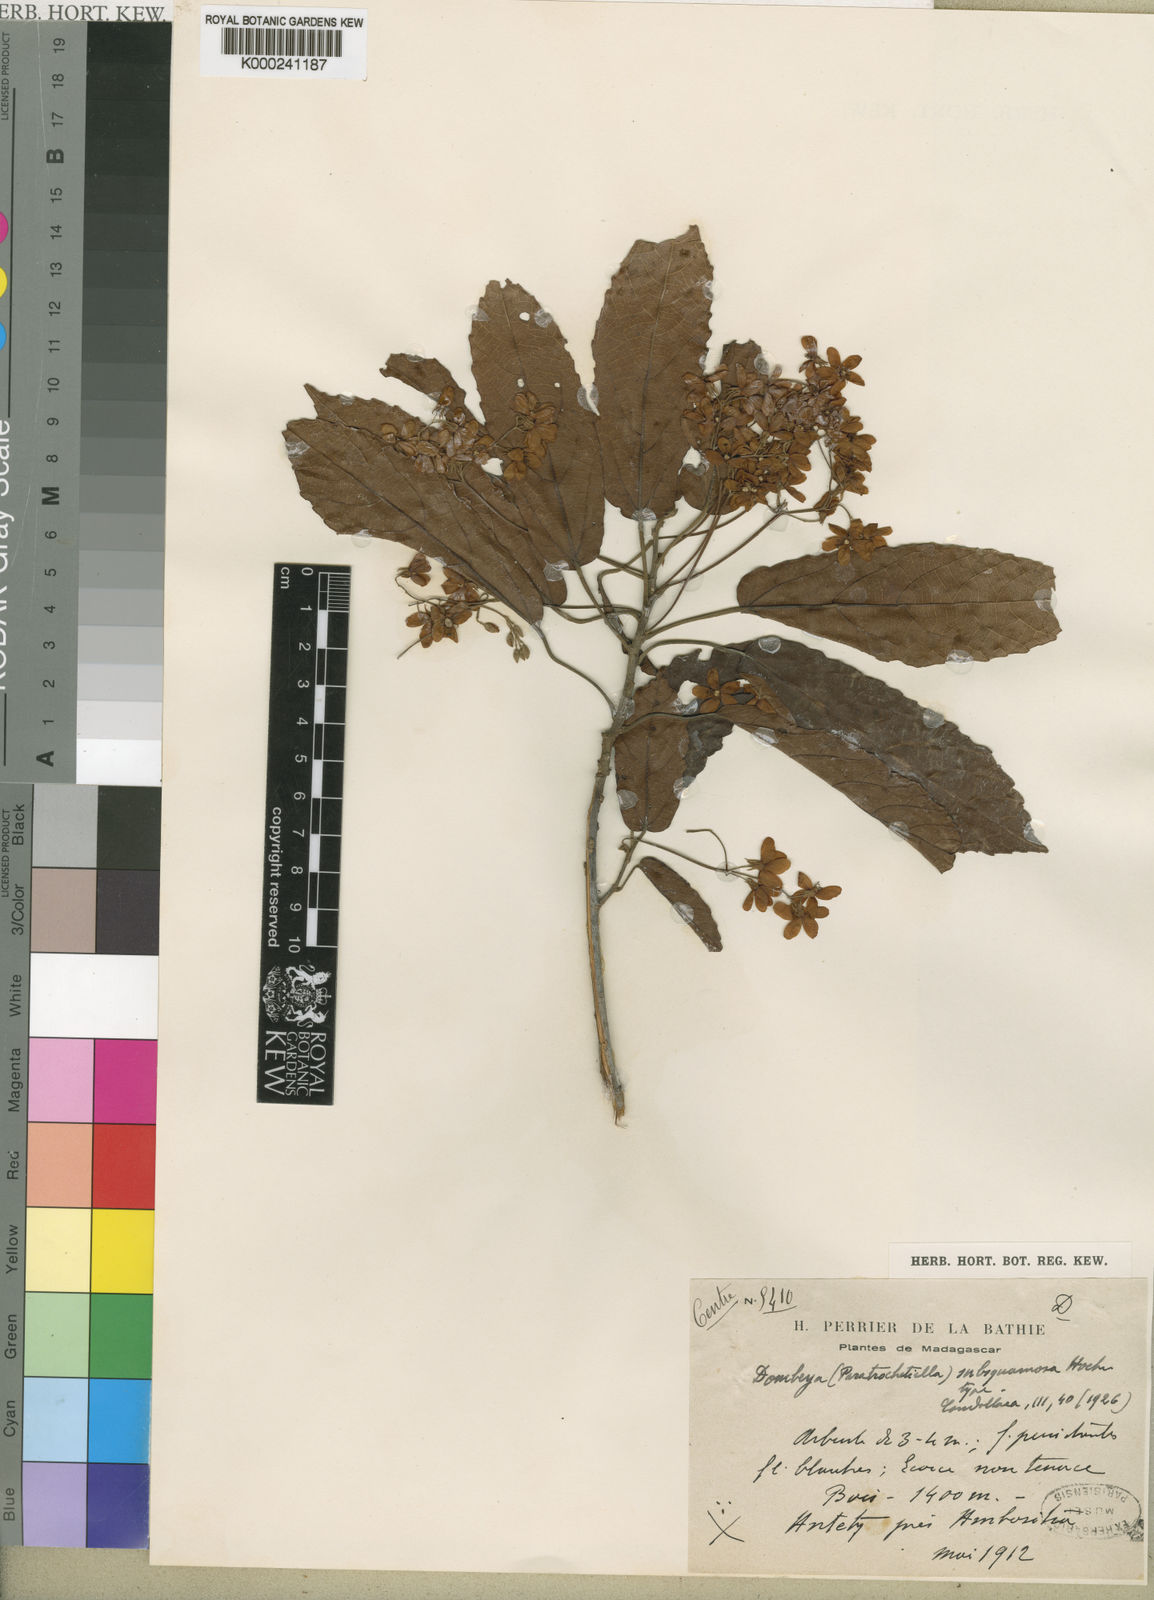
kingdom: Plantae
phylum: Tracheophyta
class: Magnoliopsida
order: Malvales
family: Malvaceae
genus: Dombeya
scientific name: Dombeya subsquamosa
